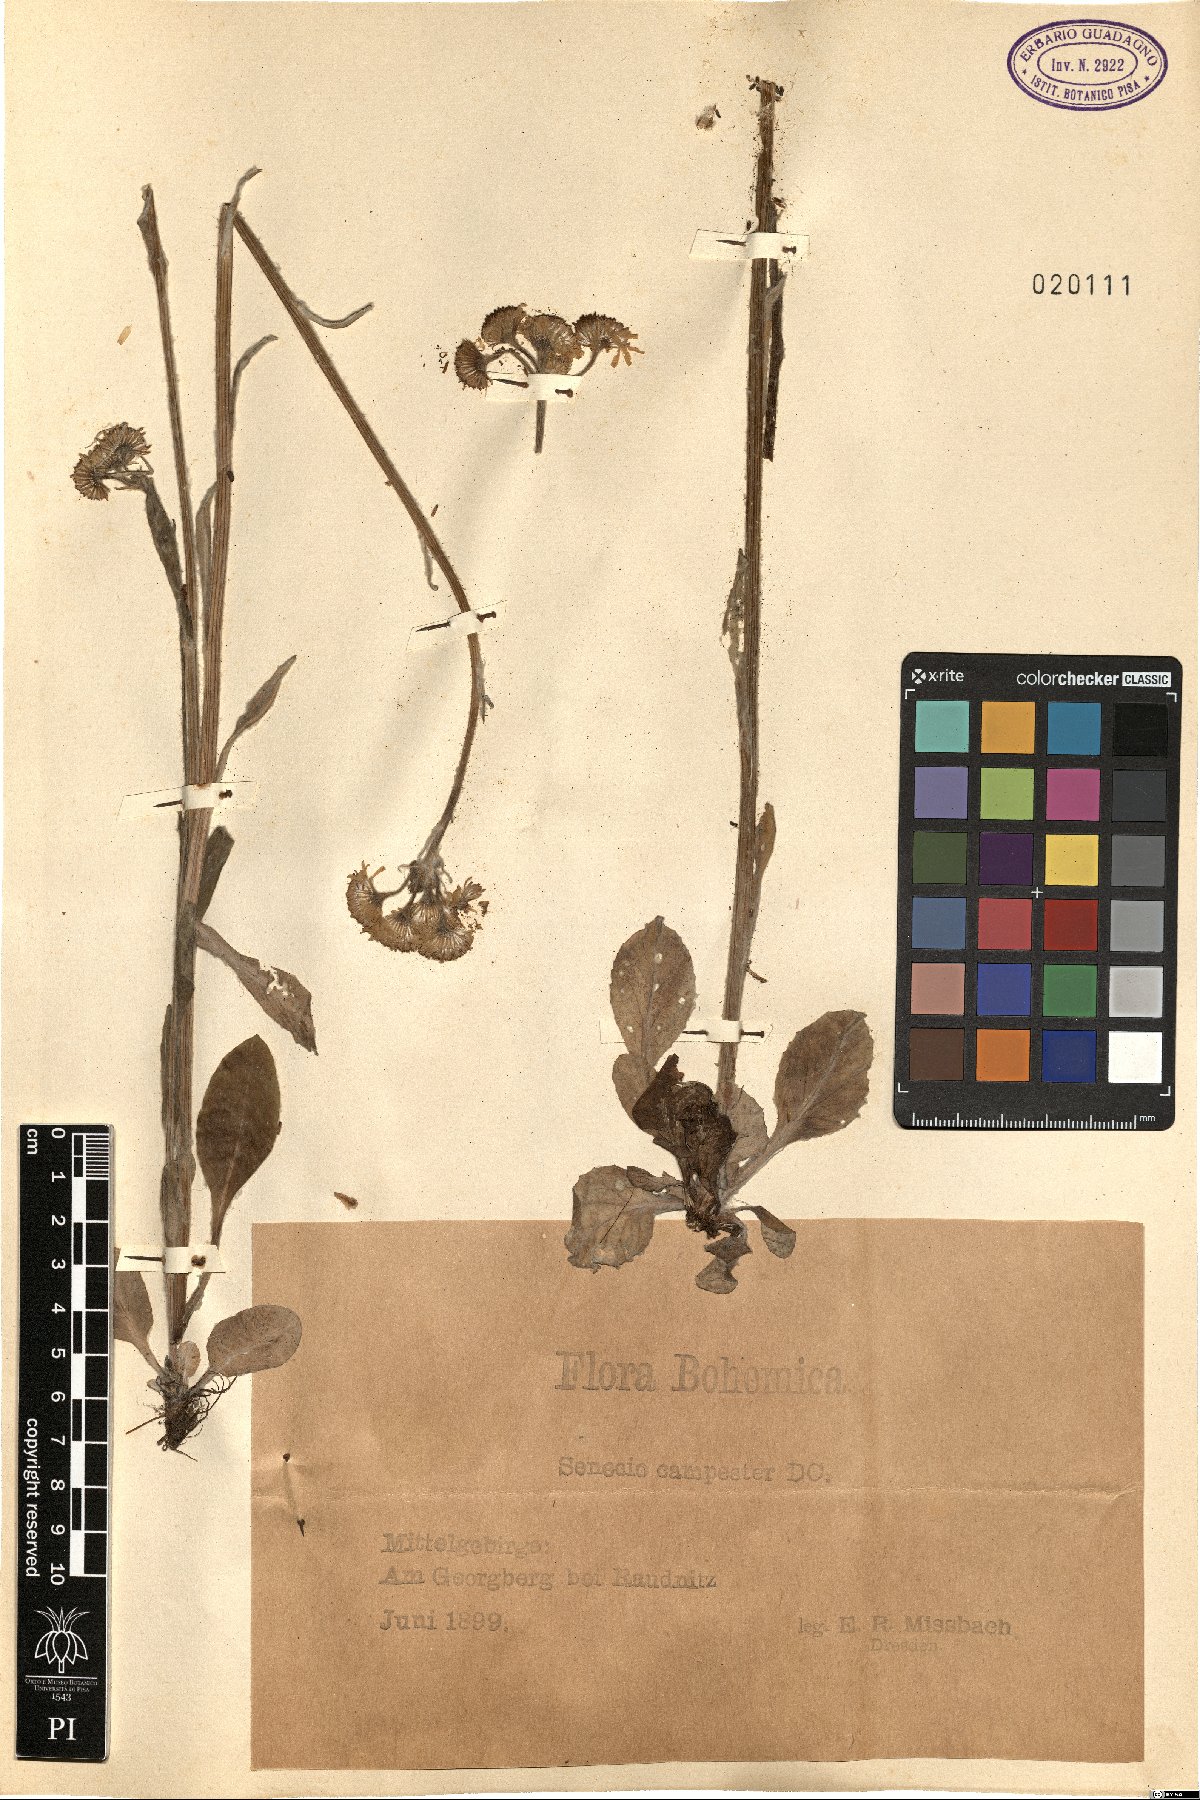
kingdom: Plantae
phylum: Tracheophyta
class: Magnoliopsida
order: Asterales
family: Asteraceae
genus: Tephroseris
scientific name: Tephroseris integrifolia
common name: Field fleawort
